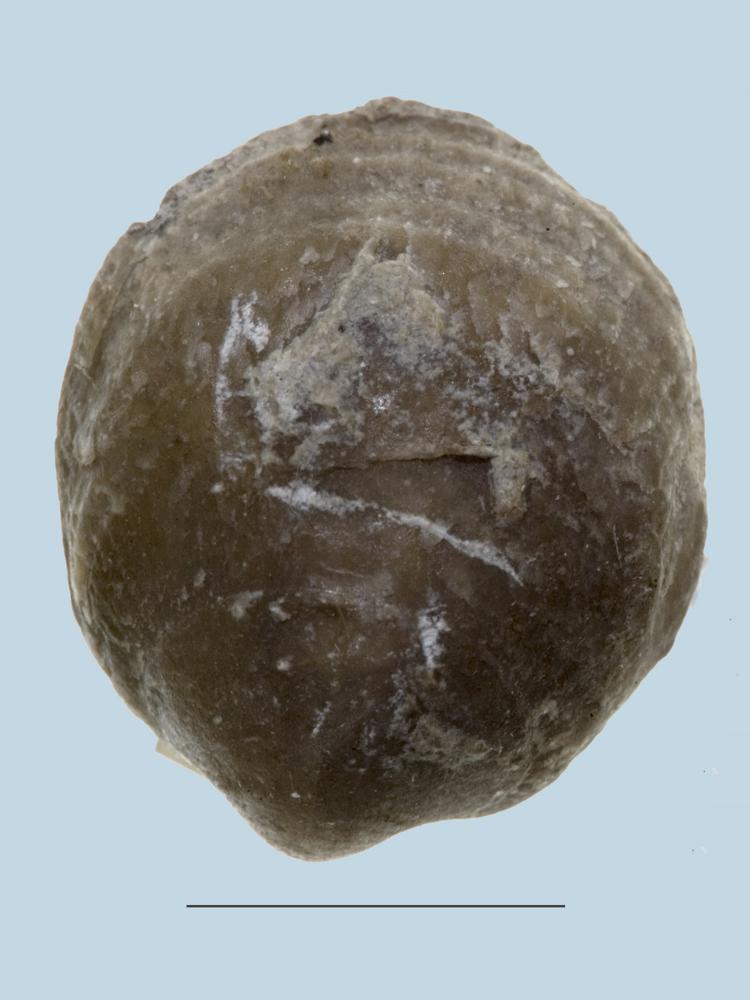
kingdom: Animalia
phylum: Brachiopoda
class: Rhynchonellata
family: Clitambonitidae
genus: Clitambonites
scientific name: Clitambonites squamatus
